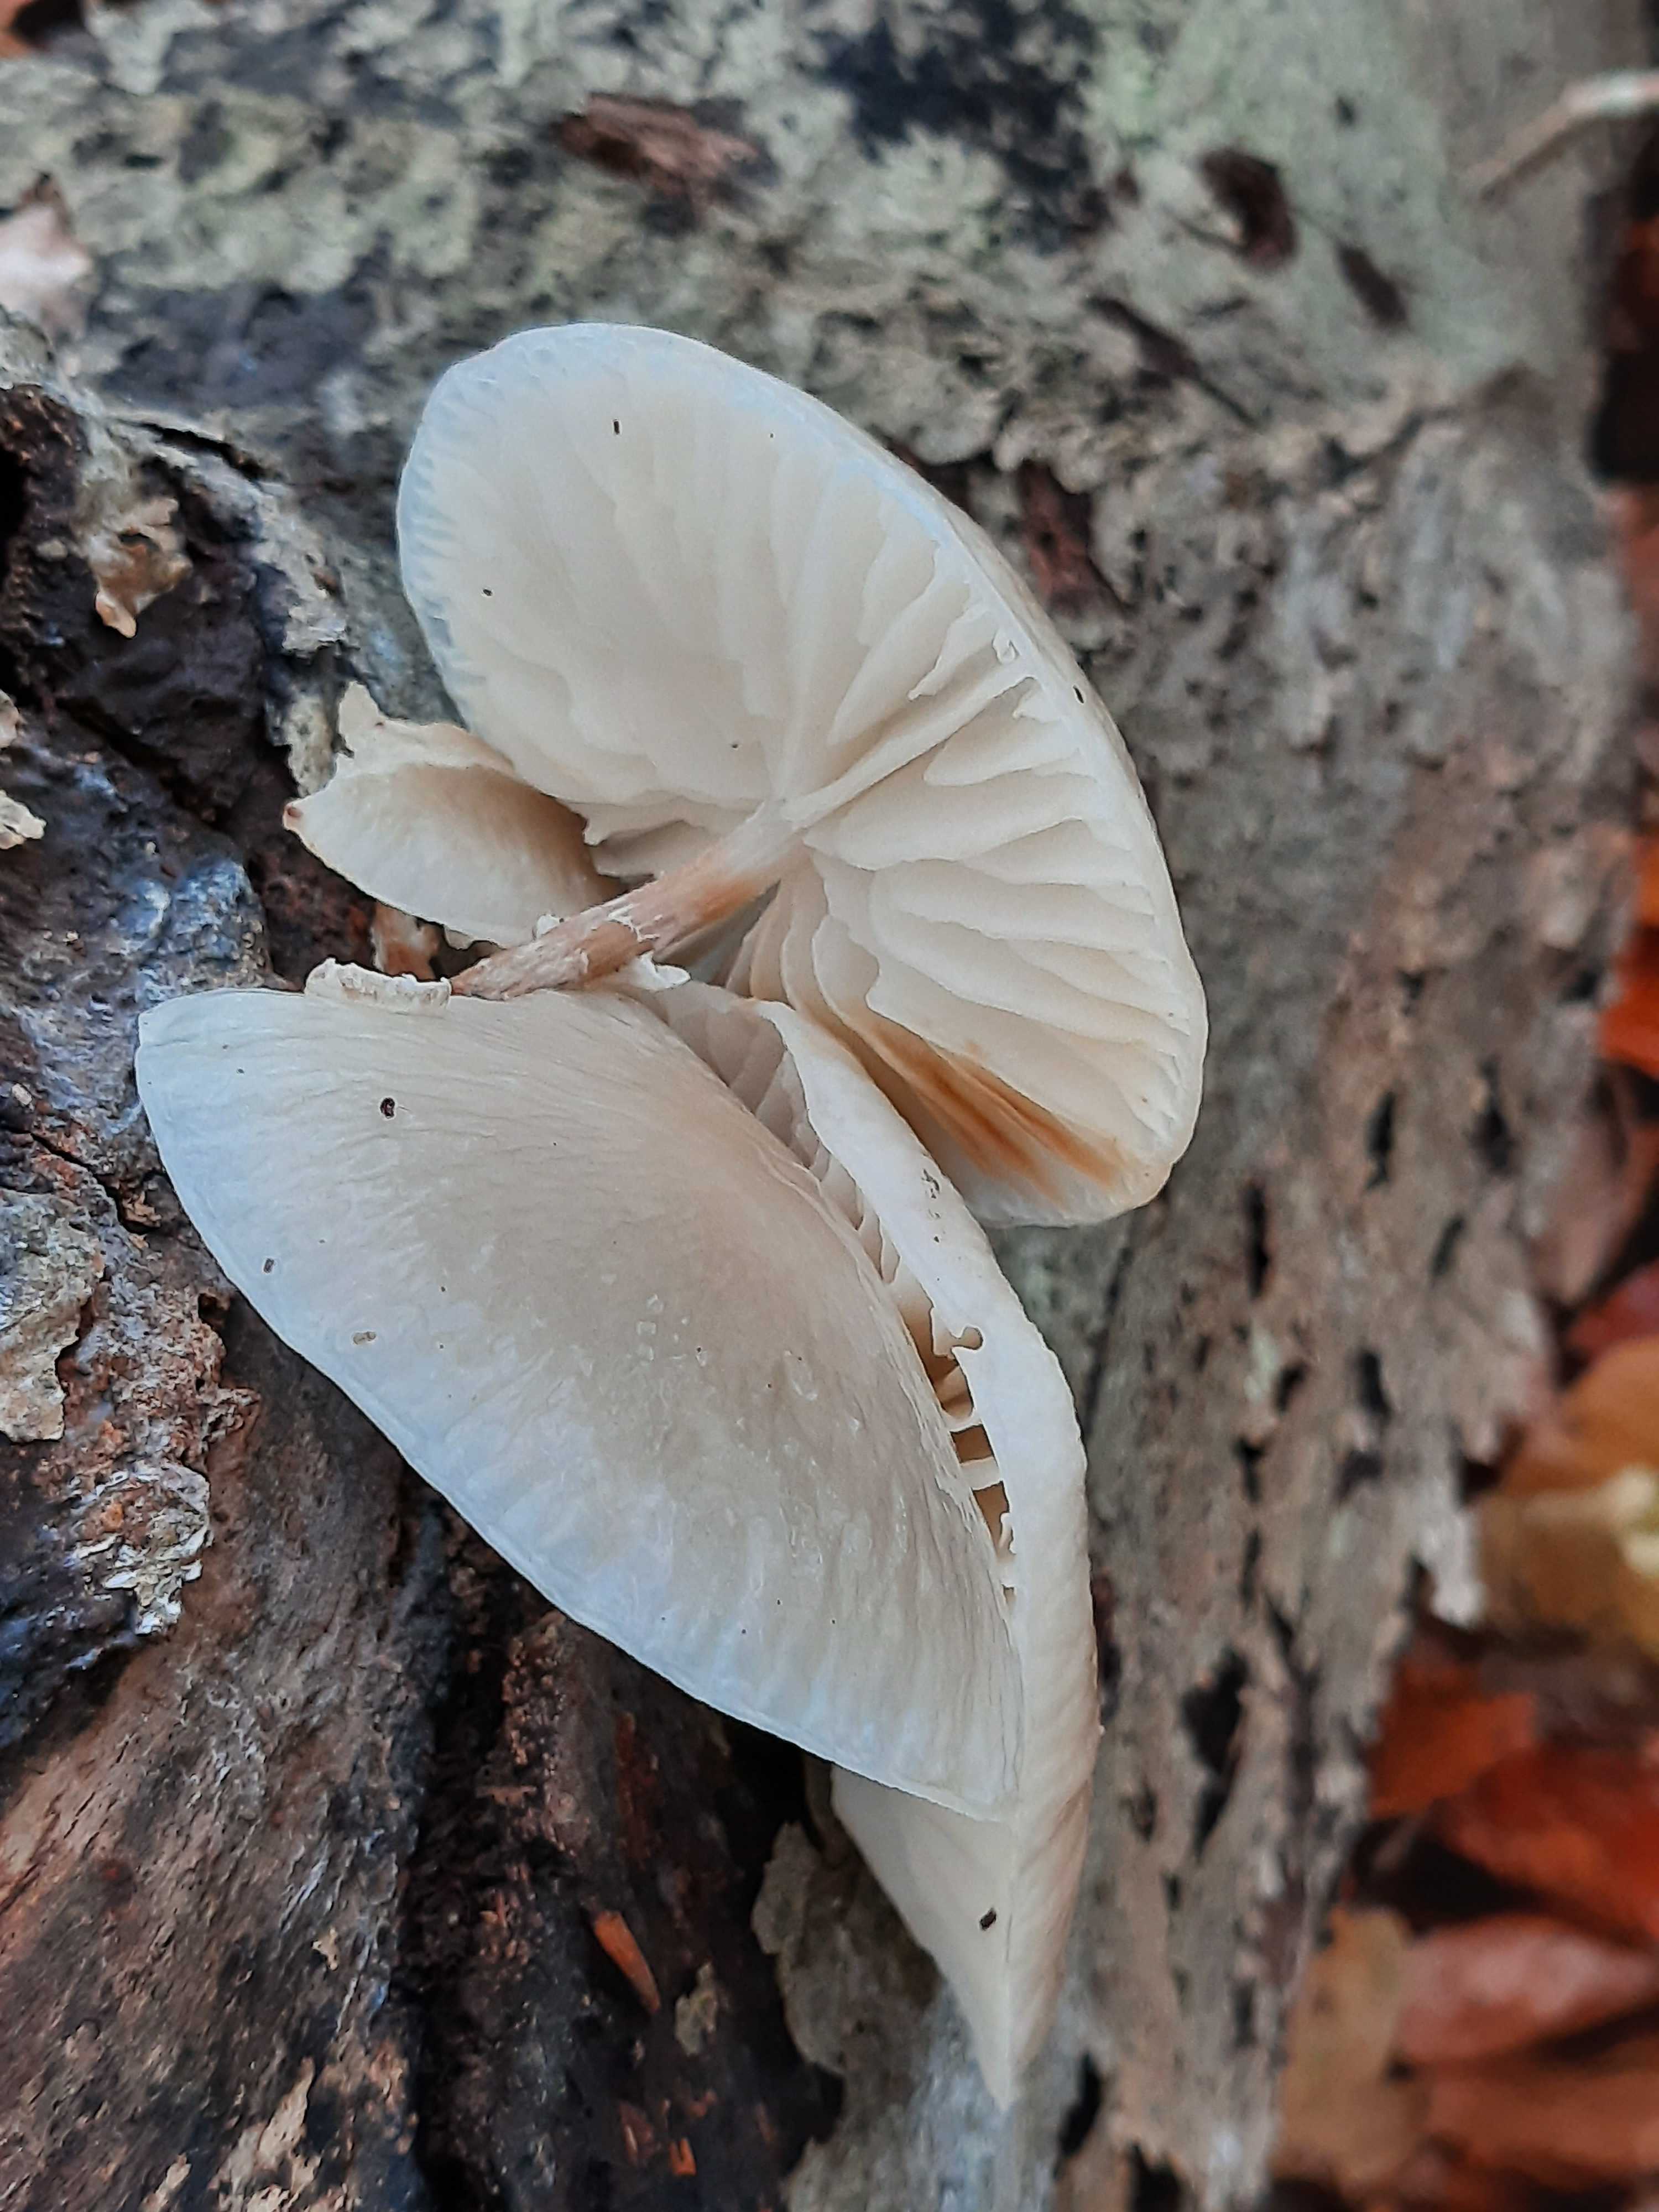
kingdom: Fungi
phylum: Basidiomycota
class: Agaricomycetes
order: Agaricales
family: Physalacriaceae
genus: Mucidula
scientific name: Mucidula mucida
